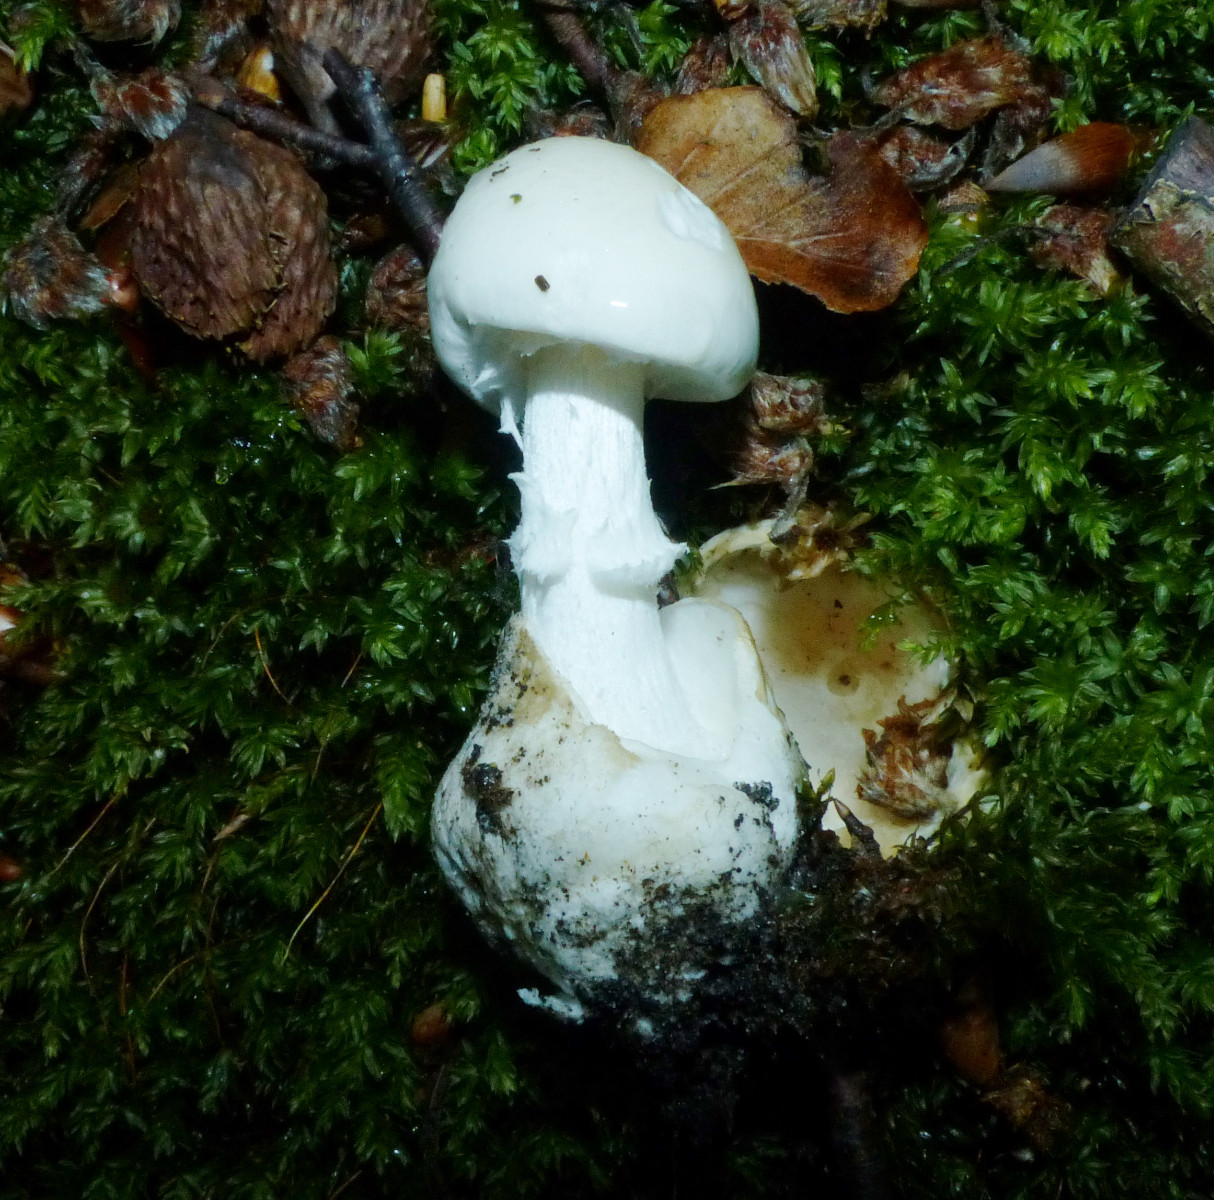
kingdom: Fungi
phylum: Basidiomycota
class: Agaricomycetes
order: Agaricales
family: Amanitaceae
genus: Amanita
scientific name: Amanita virosa
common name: snehvid fluesvamp
